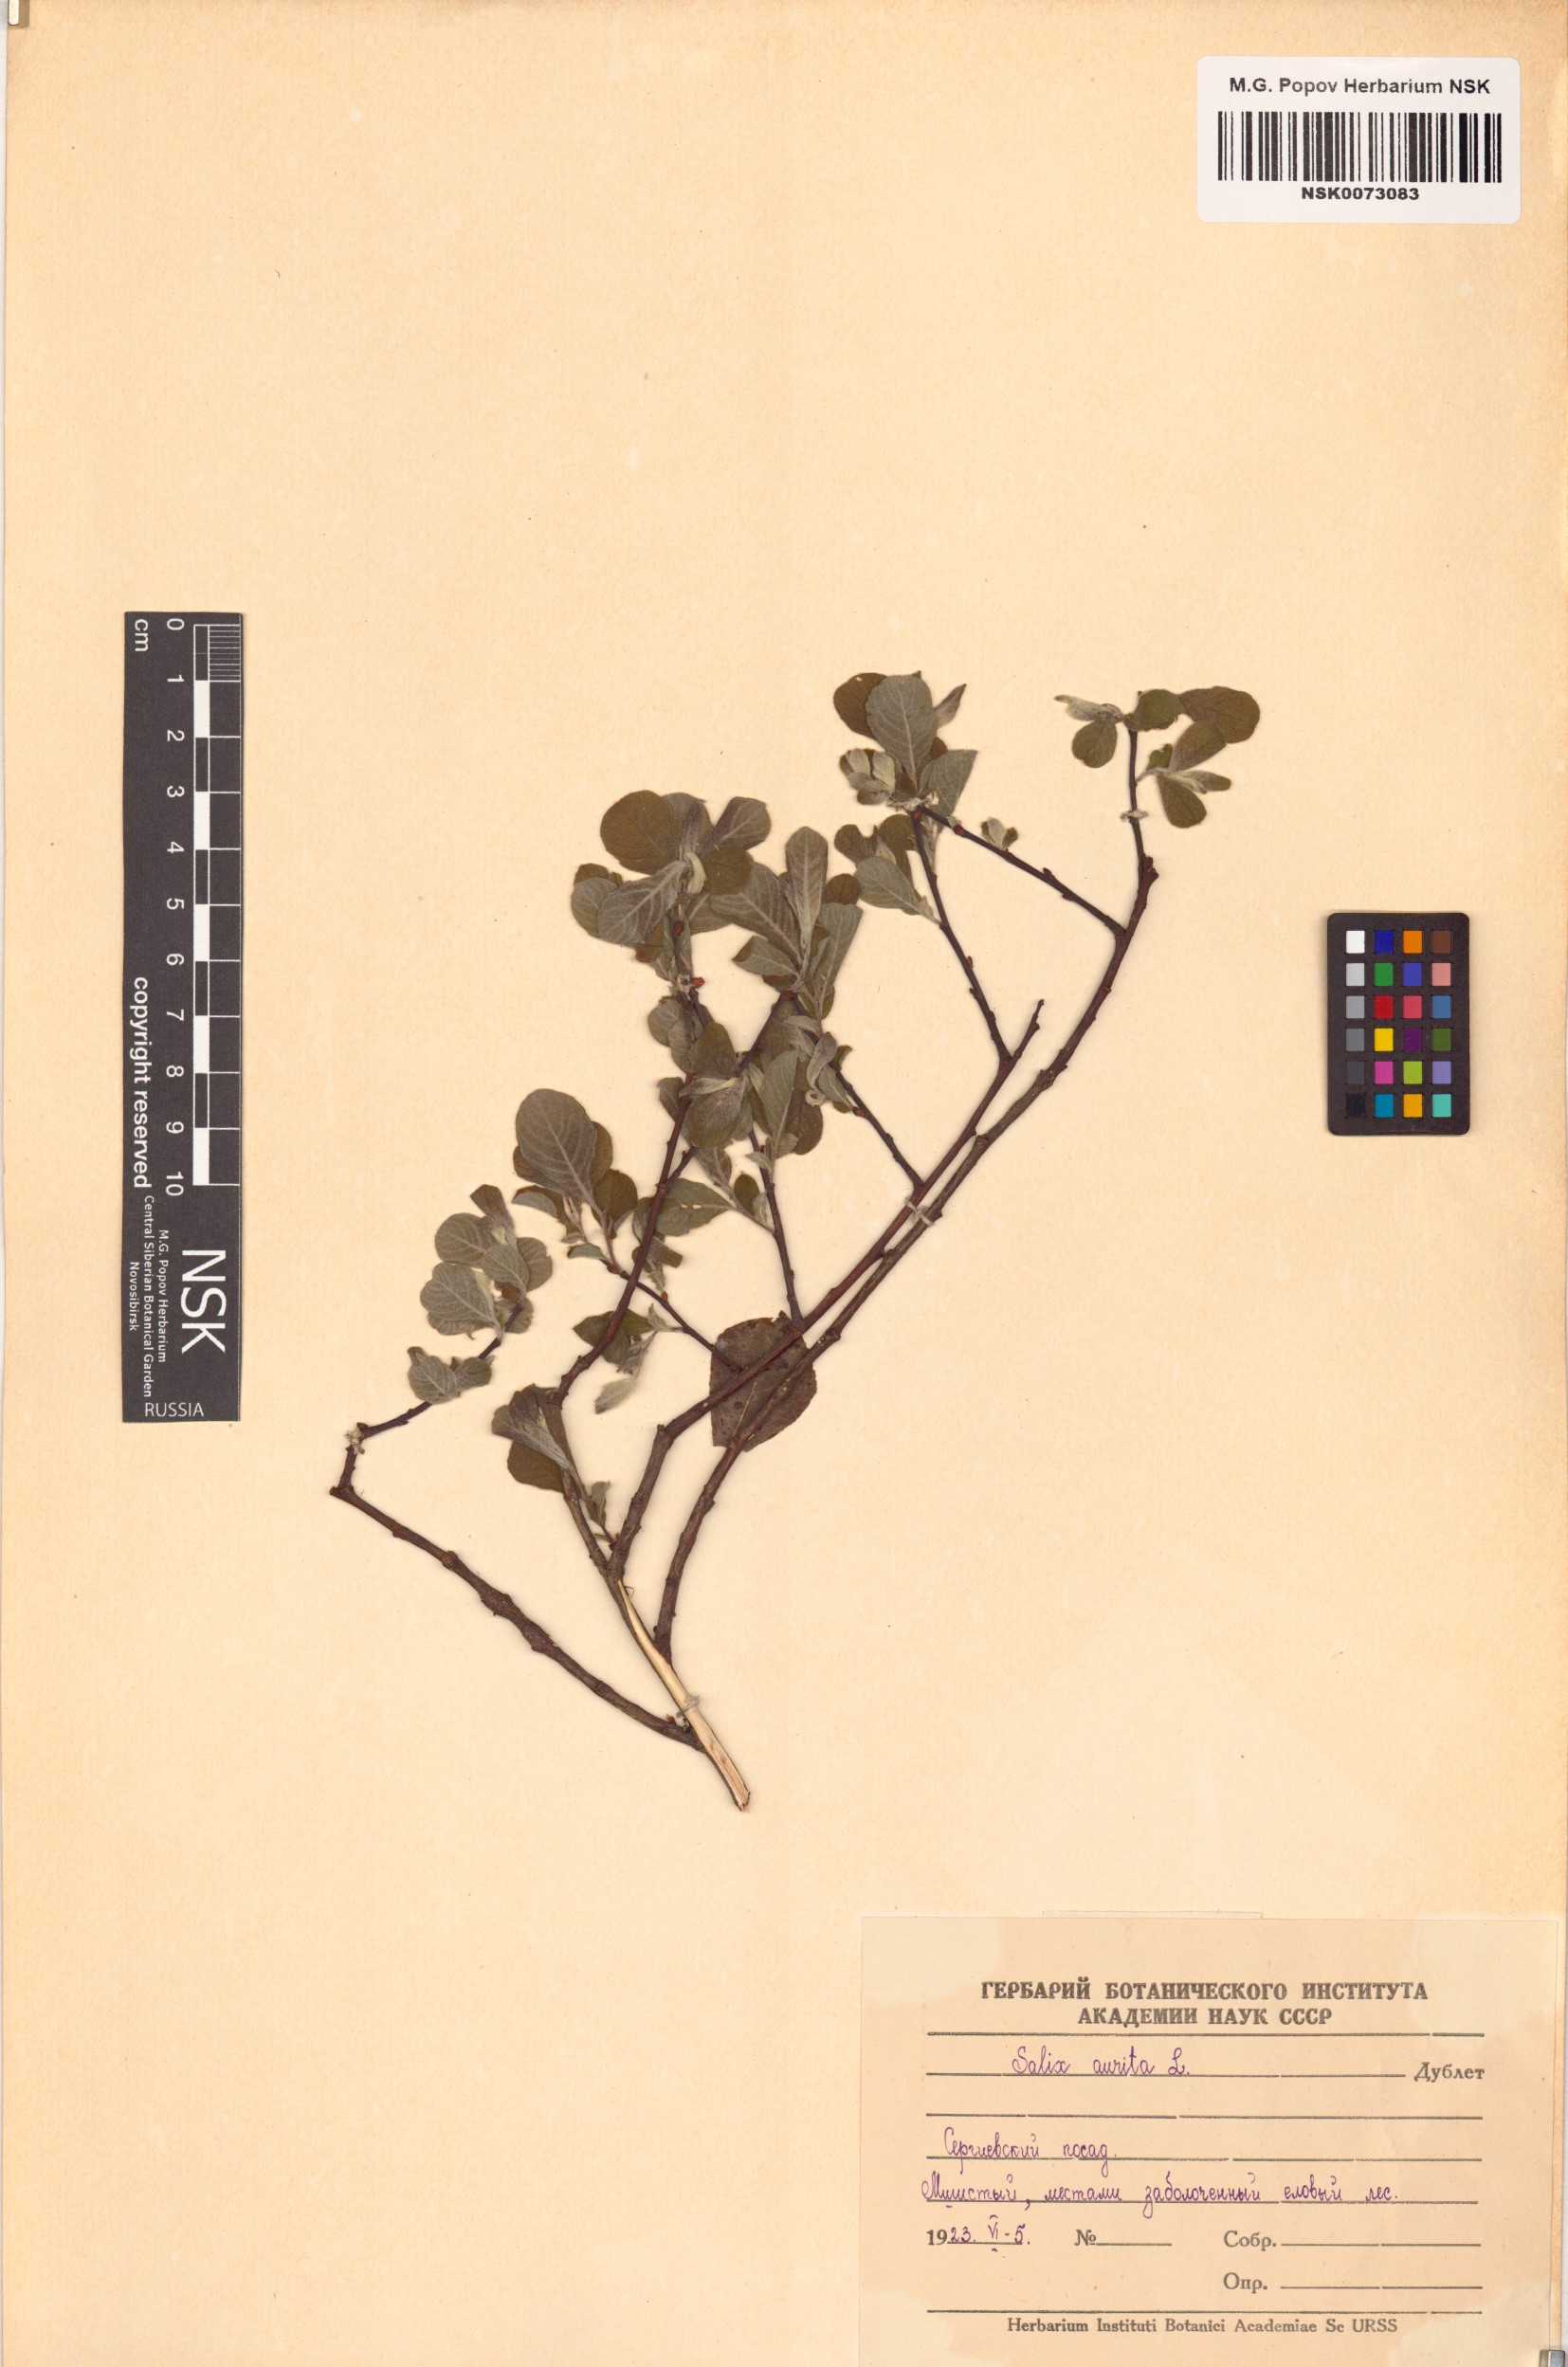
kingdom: Plantae
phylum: Tracheophyta
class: Magnoliopsida
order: Malpighiales
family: Salicaceae
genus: Salix
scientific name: Salix aurita
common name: Eared willow
